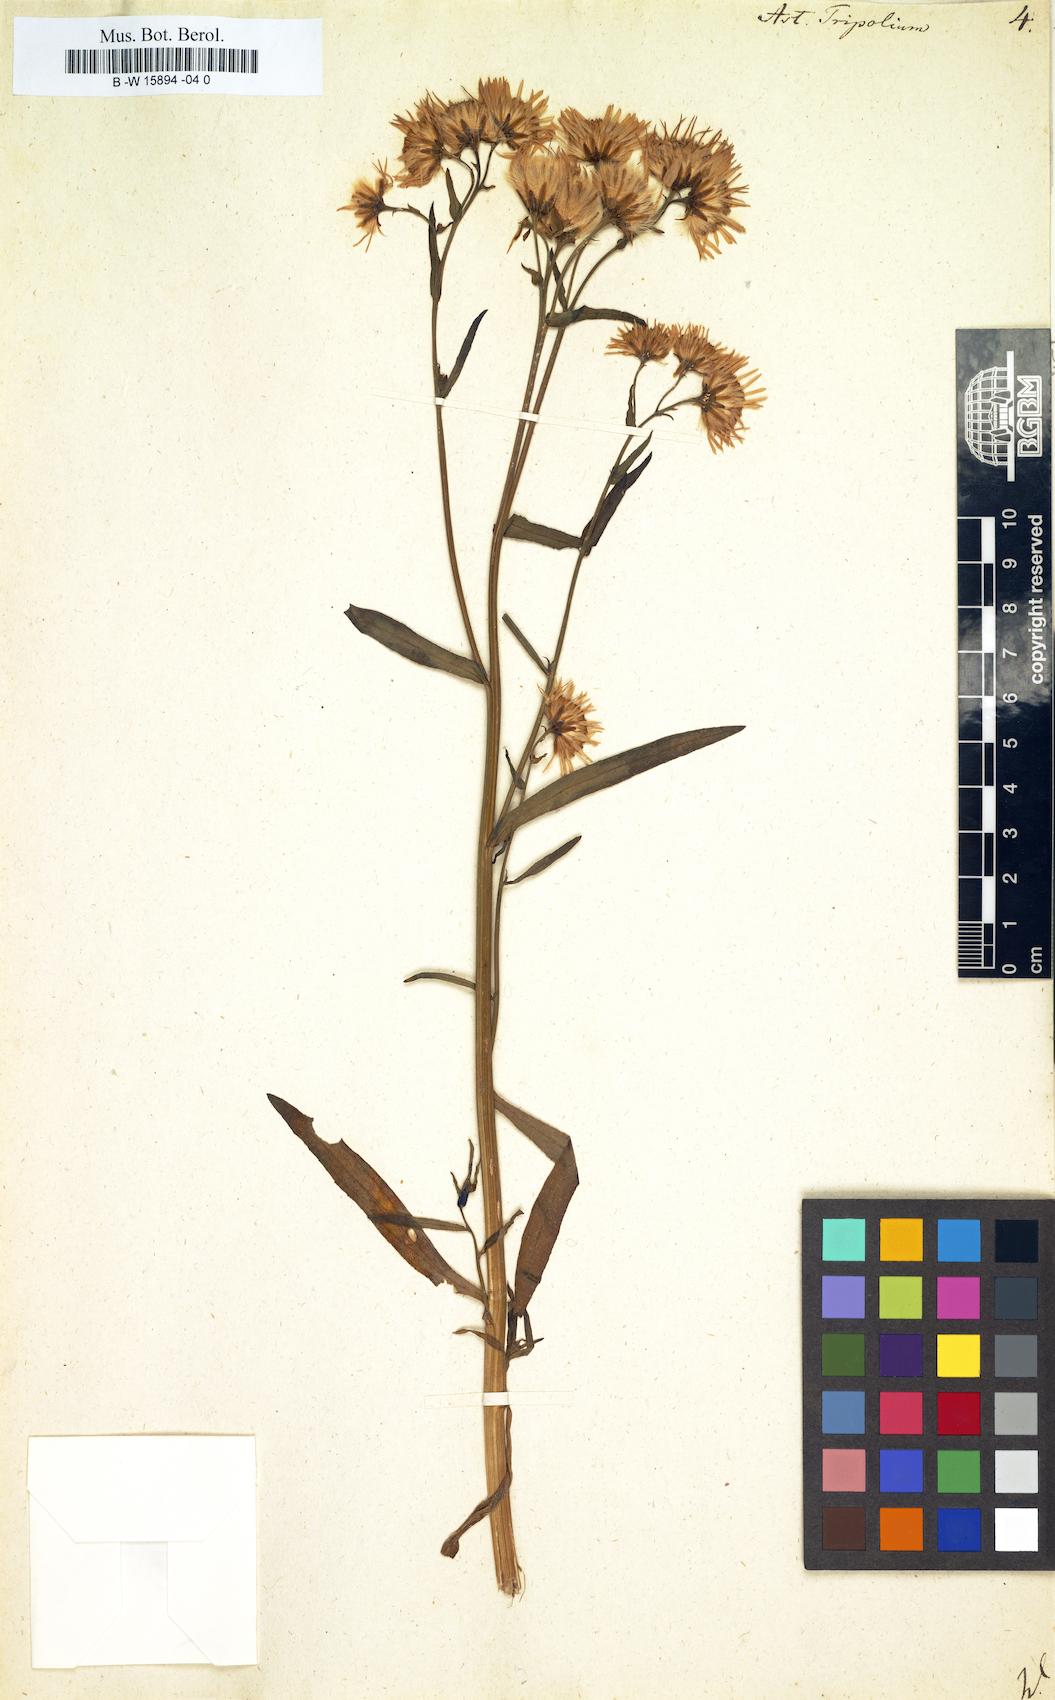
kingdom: Plantae
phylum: Tracheophyta
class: Magnoliopsida
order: Asterales
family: Asteraceae
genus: Tripolium
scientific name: Tripolium pannonicum
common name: Sea aster
